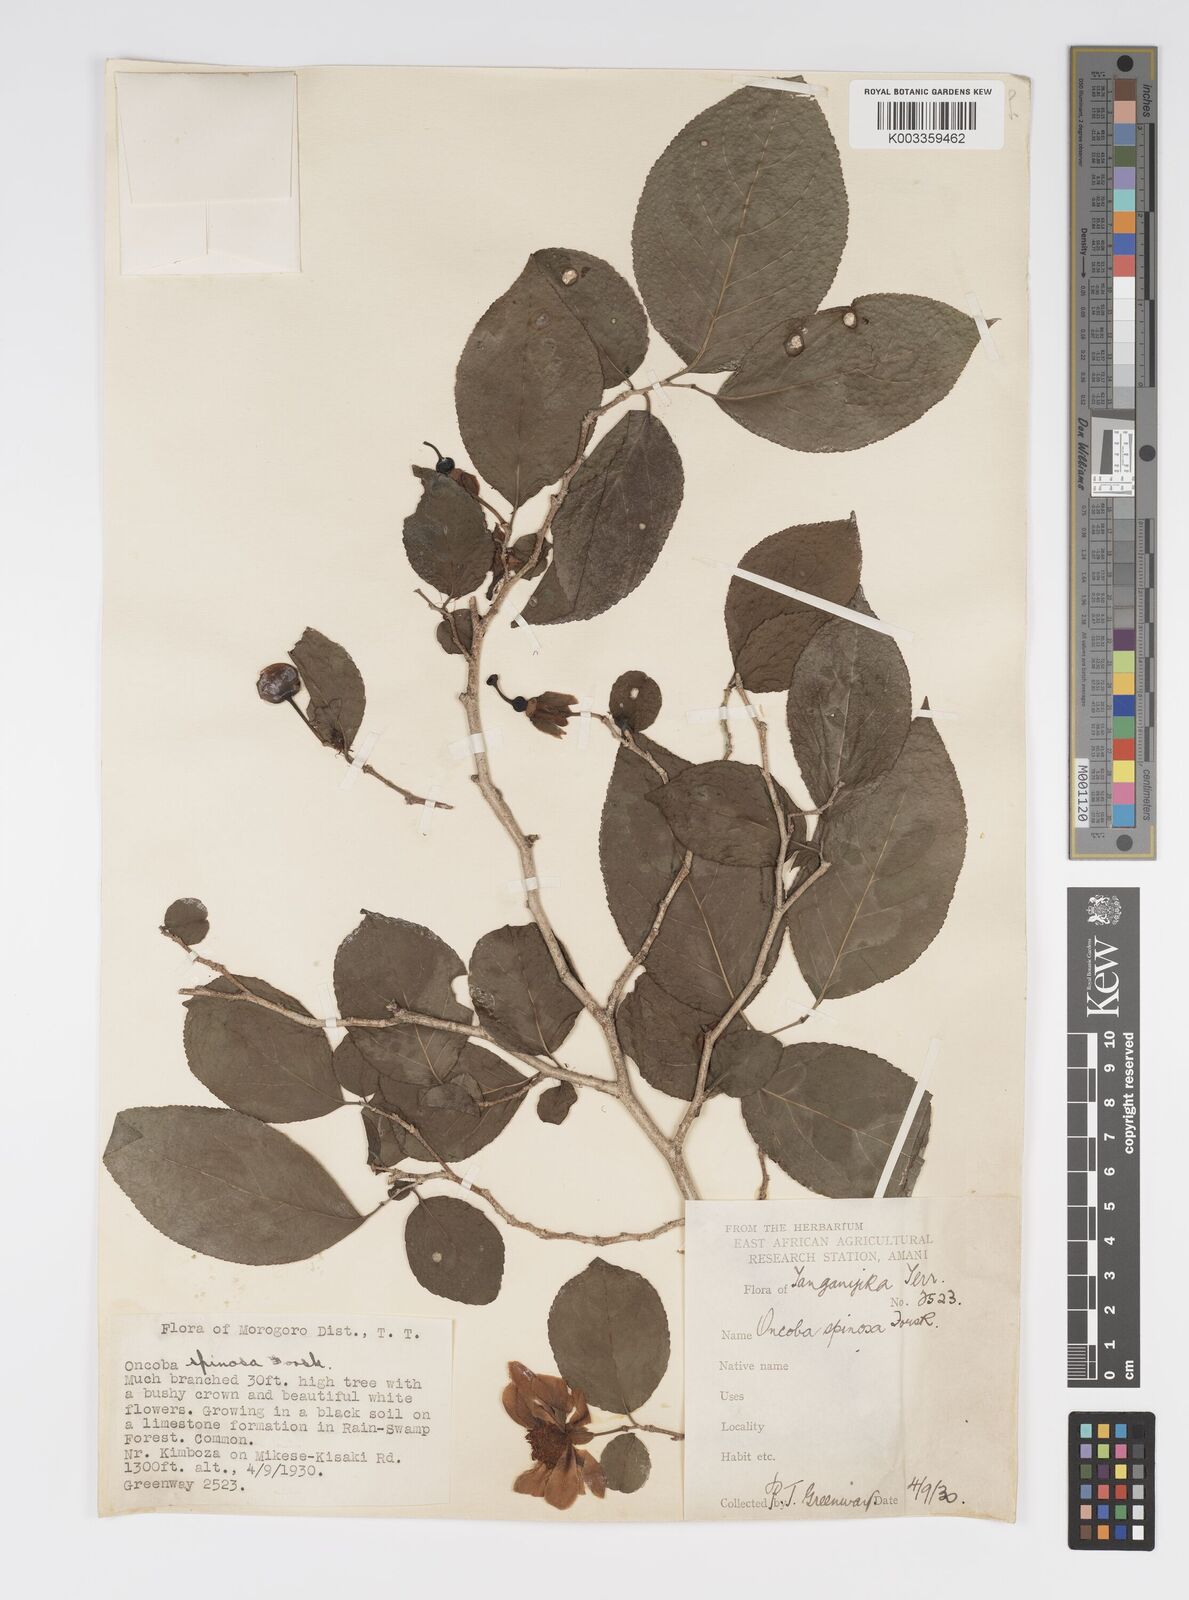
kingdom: Plantae
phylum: Tracheophyta
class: Magnoliopsida
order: Malpighiales
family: Salicaceae
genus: Oncoba
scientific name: Oncoba spinosa
